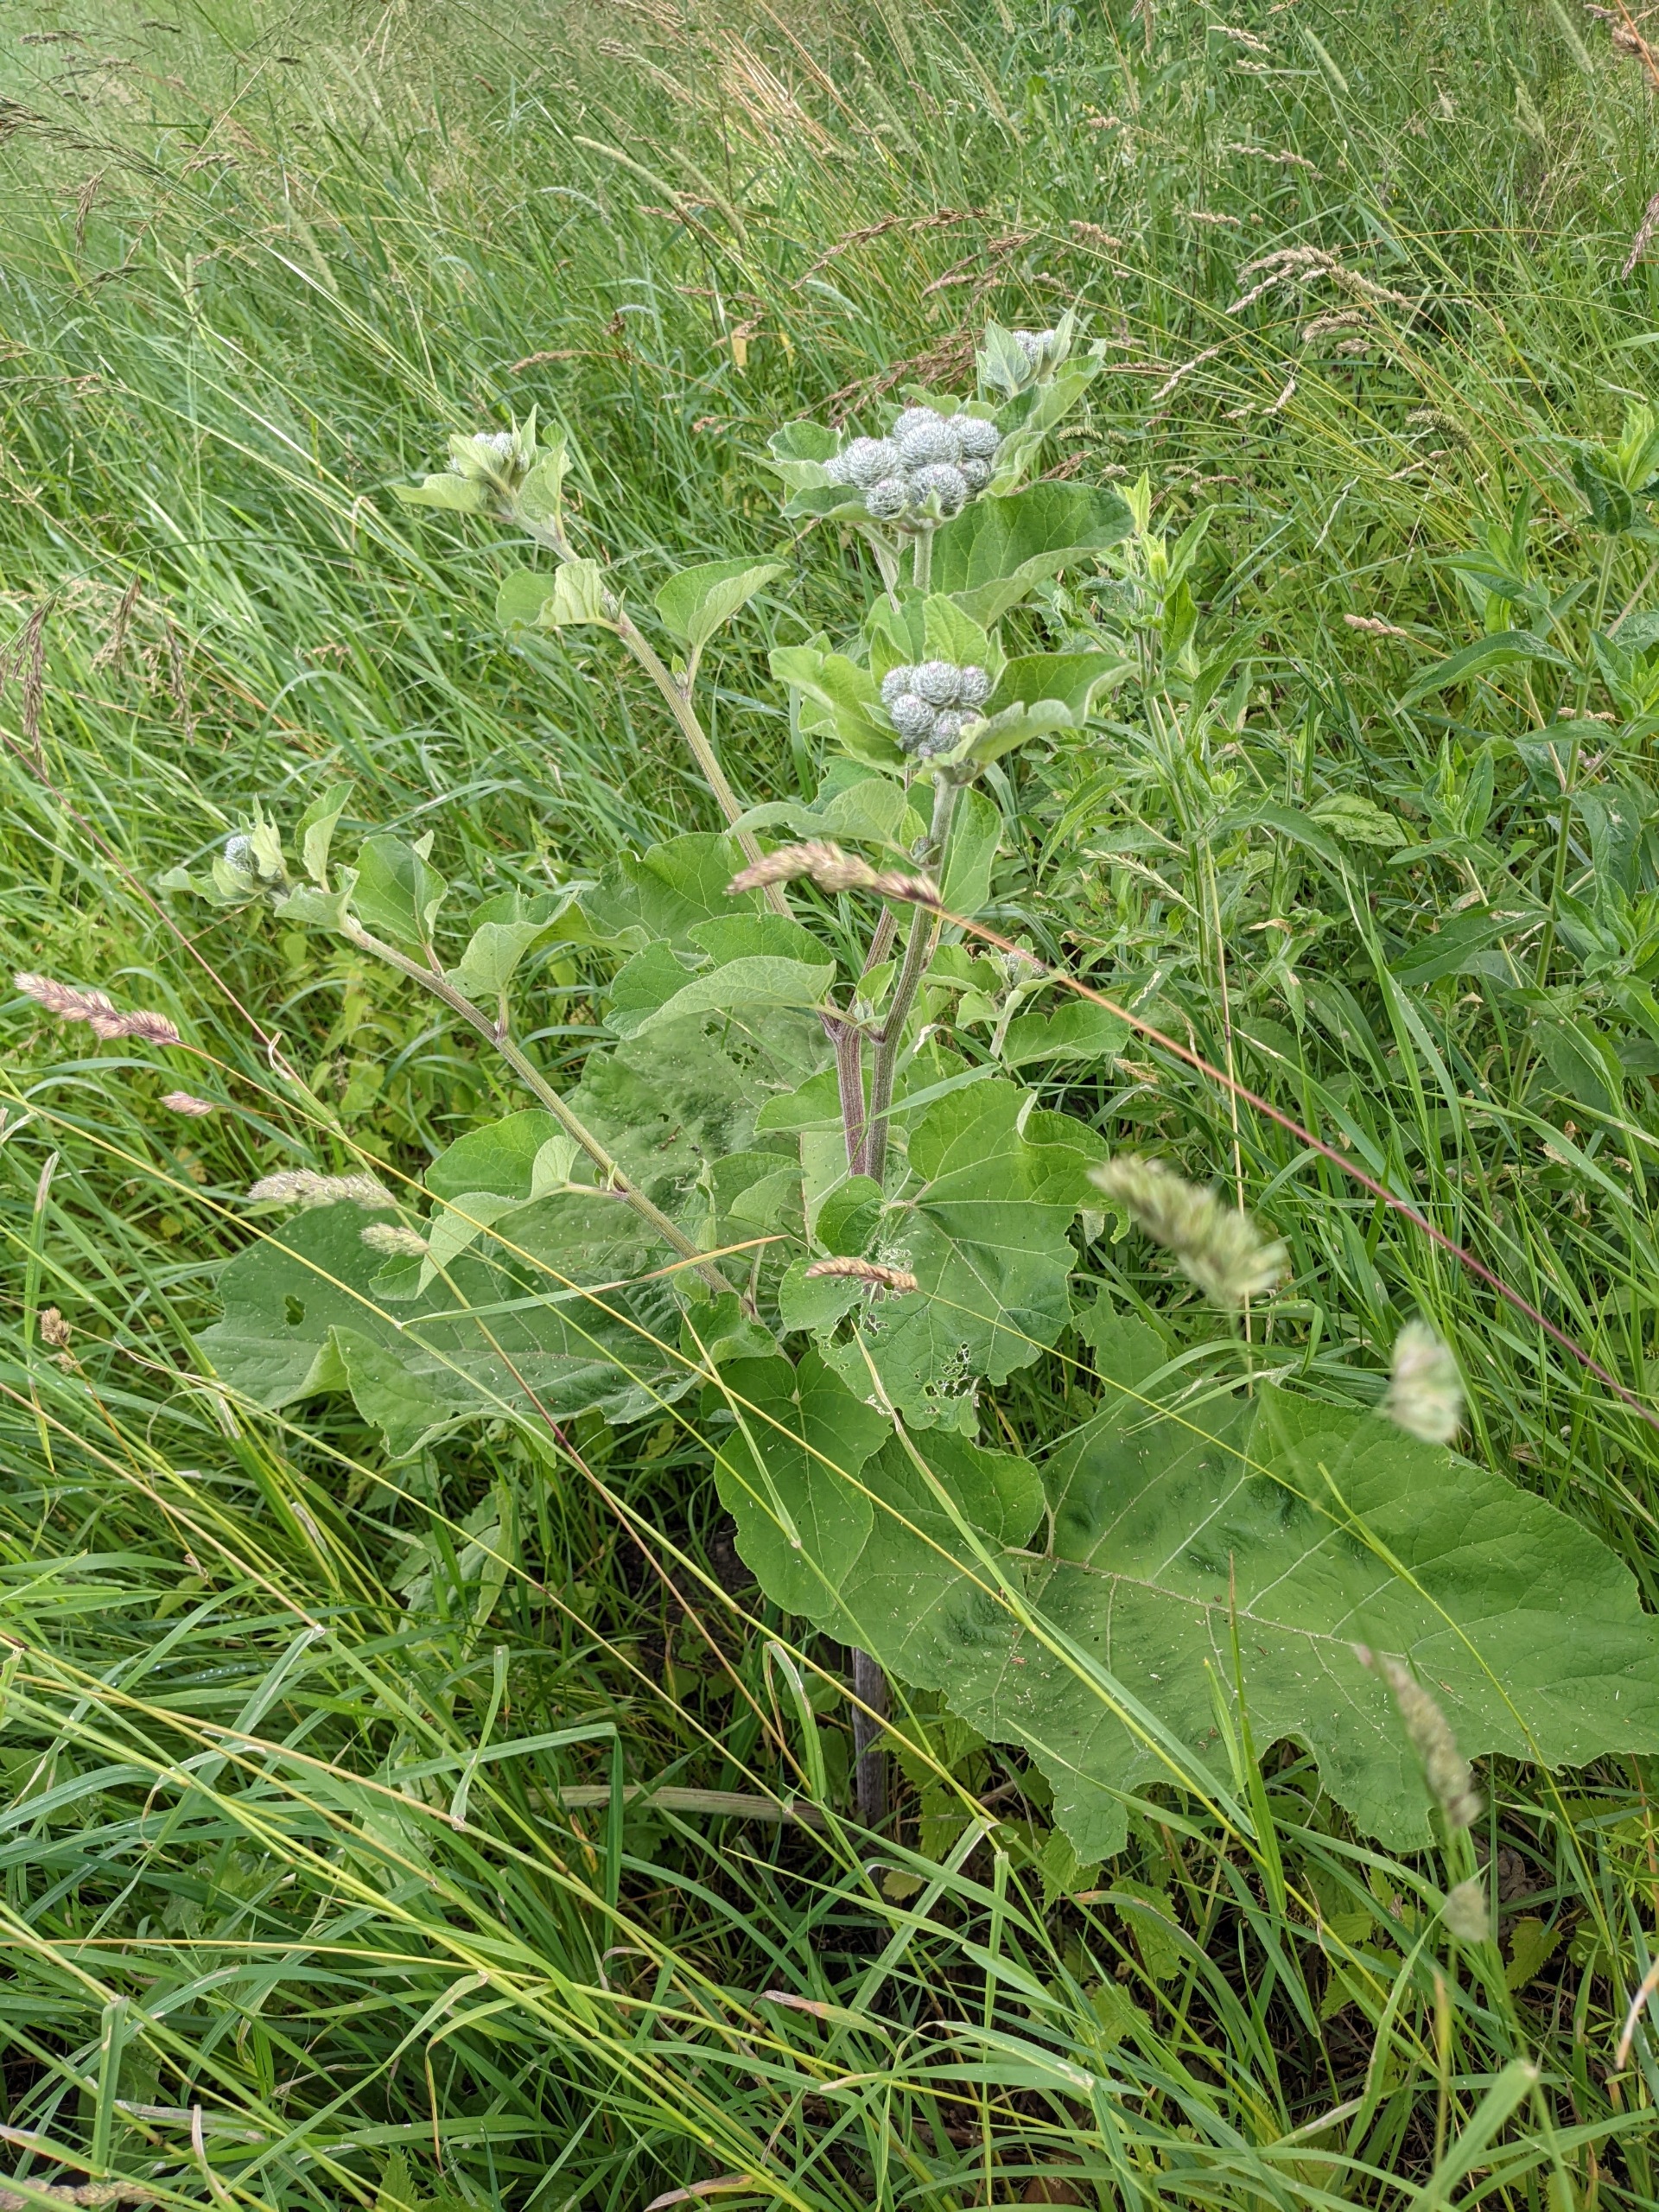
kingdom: Plantae
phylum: Tracheophyta
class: Magnoliopsida
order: Asterales
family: Asteraceae
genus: Arctium
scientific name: Arctium tomentosum
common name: Filtet burre
